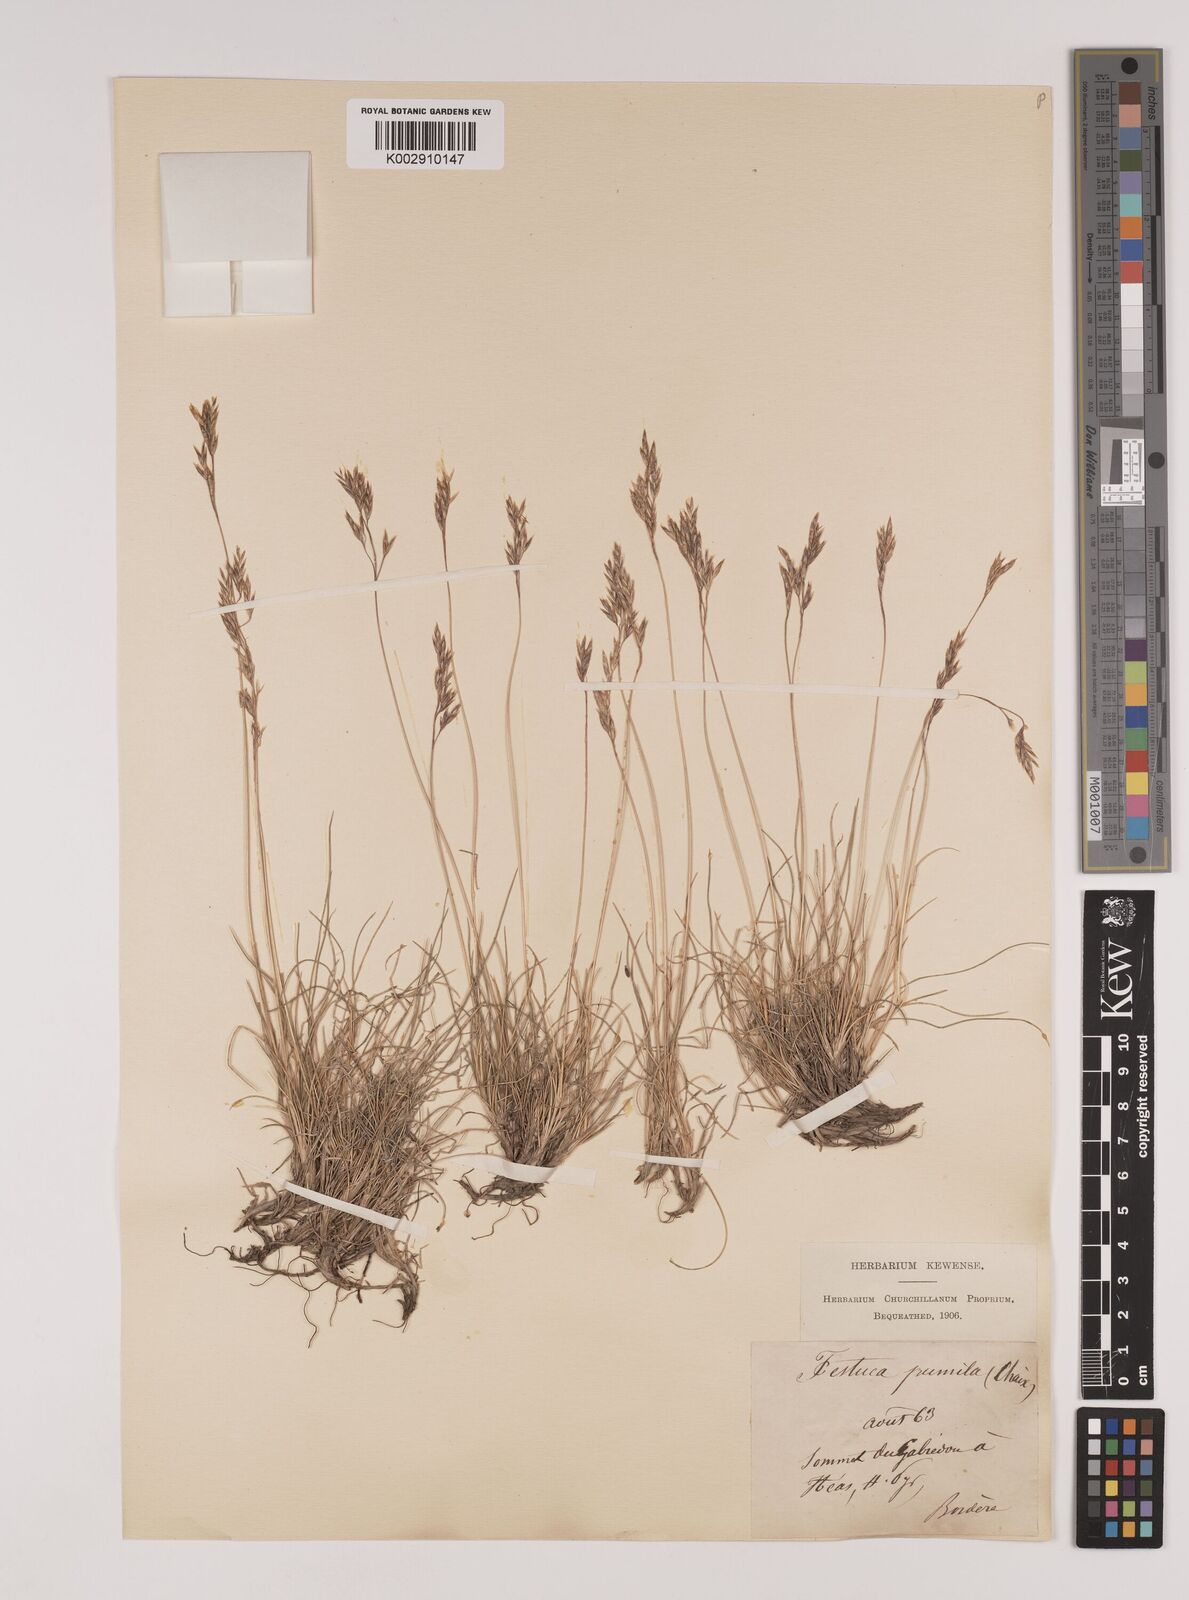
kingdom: Plantae
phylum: Tracheophyta
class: Liliopsida
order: Poales
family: Poaceae
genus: Festuca
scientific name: Festuca
